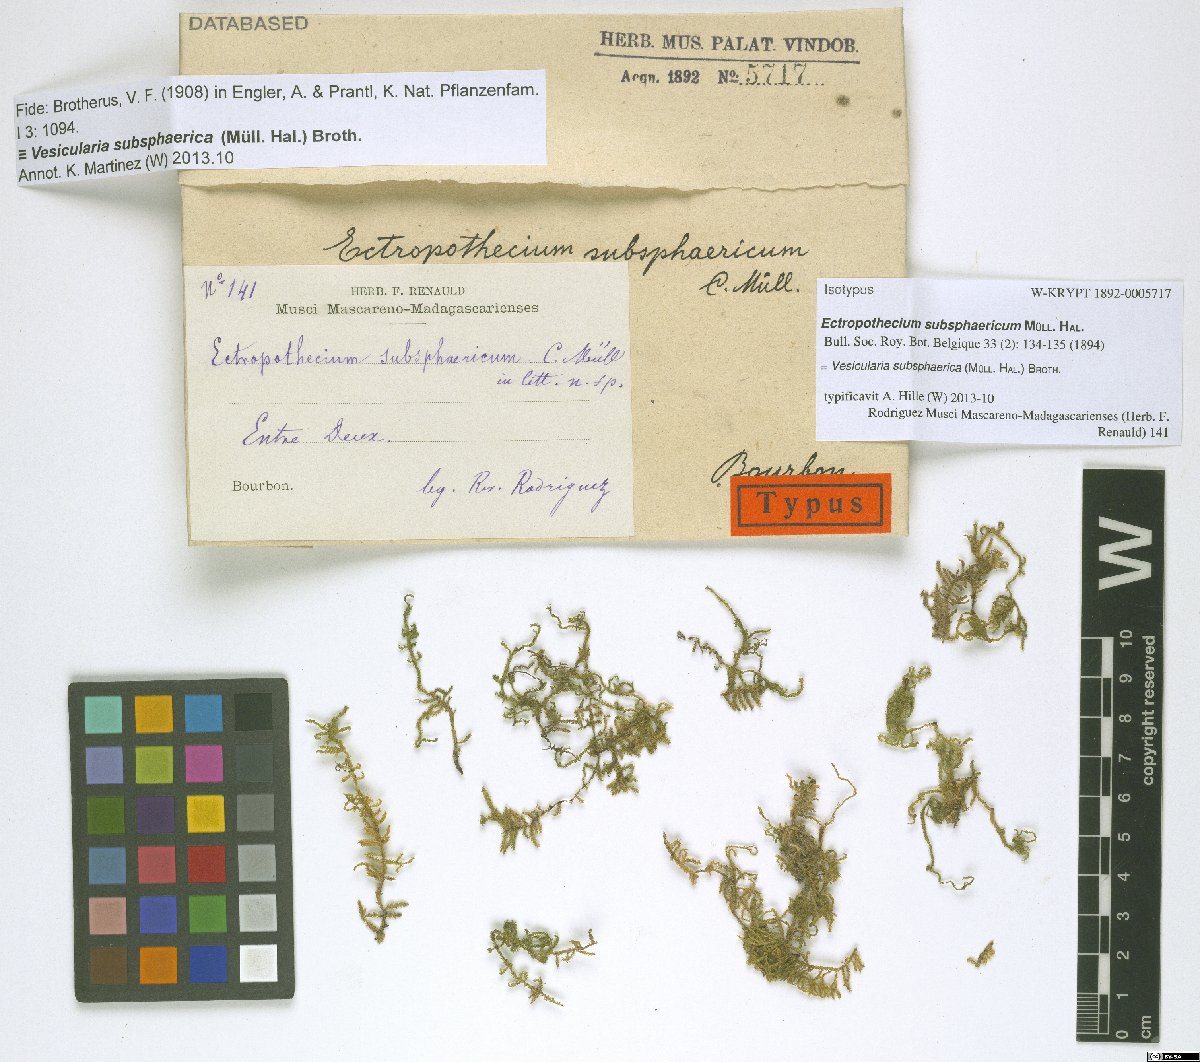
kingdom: Plantae
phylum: Bryophyta
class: Bryopsida
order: Hypnales
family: Hypnaceae
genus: Vesicularia
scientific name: Vesicularia subsphaerica
